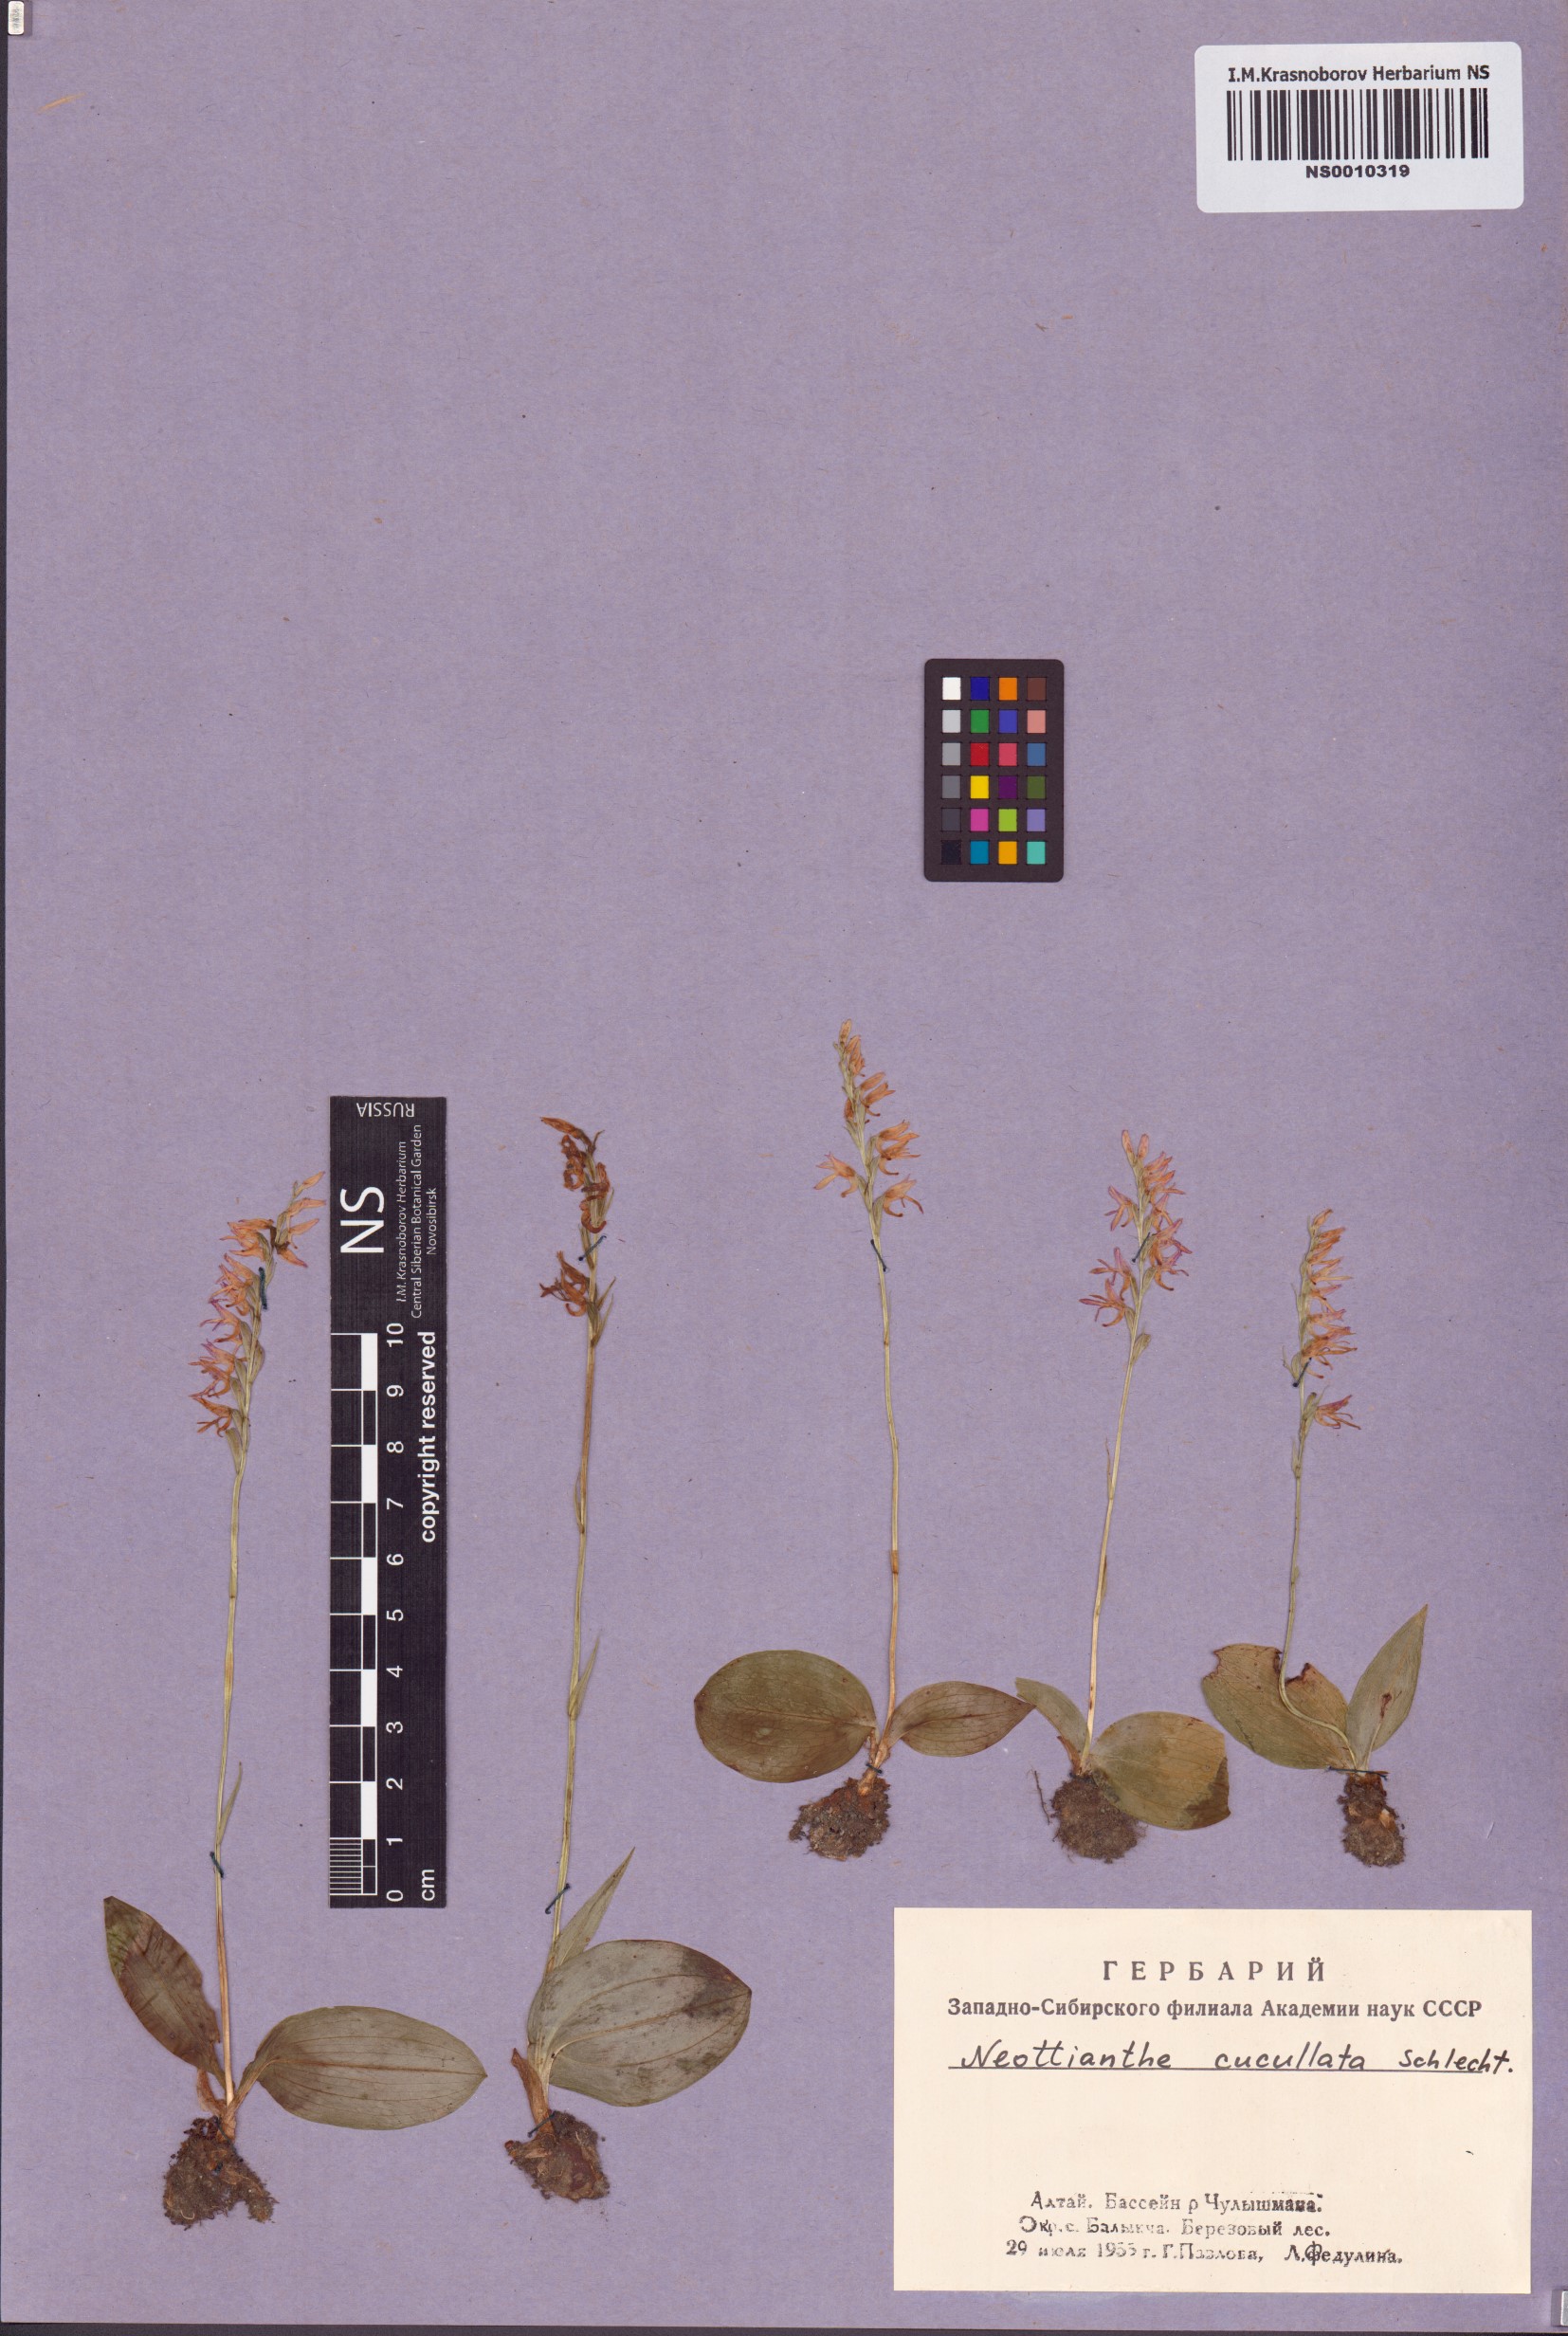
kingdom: Plantae
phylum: Tracheophyta
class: Liliopsida
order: Asparagales
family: Orchidaceae
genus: Hemipilia
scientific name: Hemipilia cucullata
